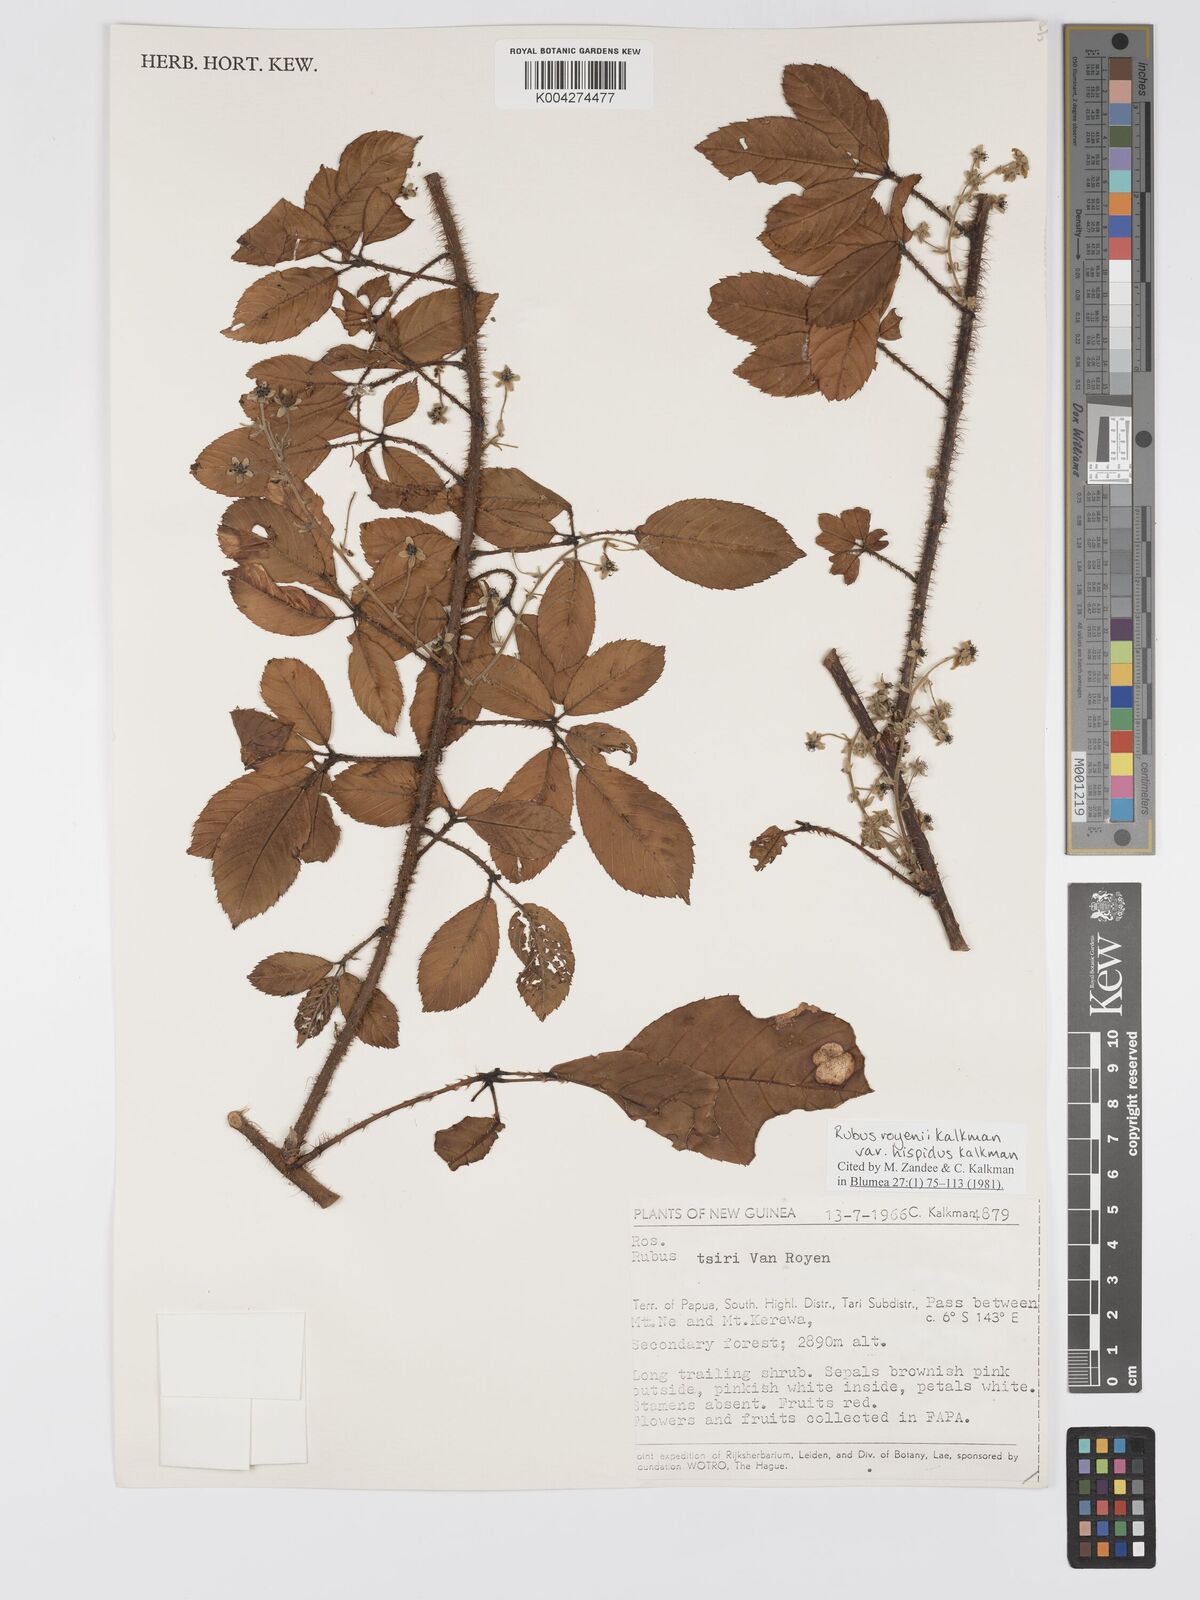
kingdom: Plantae
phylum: Tracheophyta
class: Magnoliopsida
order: Rosales
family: Rosaceae
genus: Rubus
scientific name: Rubus royenii
